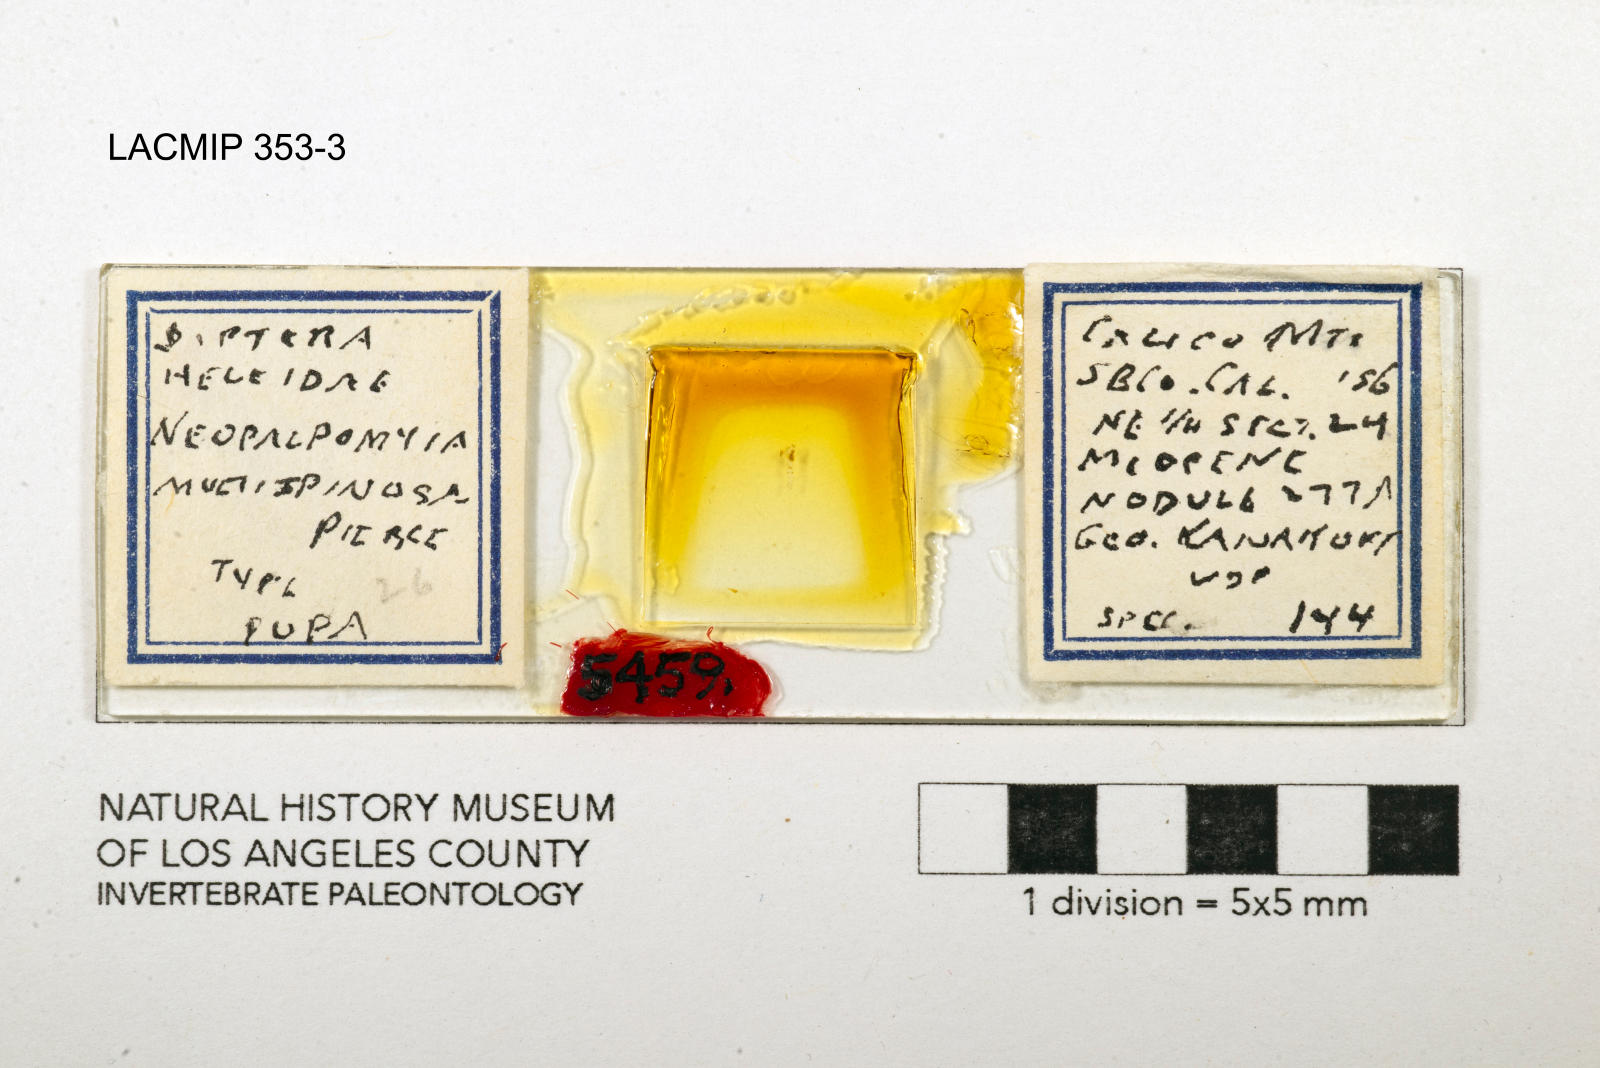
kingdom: Animalia
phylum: Arthropoda
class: Insecta
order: Diptera
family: Ceratopogonidae
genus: Palpomyia
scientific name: Palpomyia multispinosa
